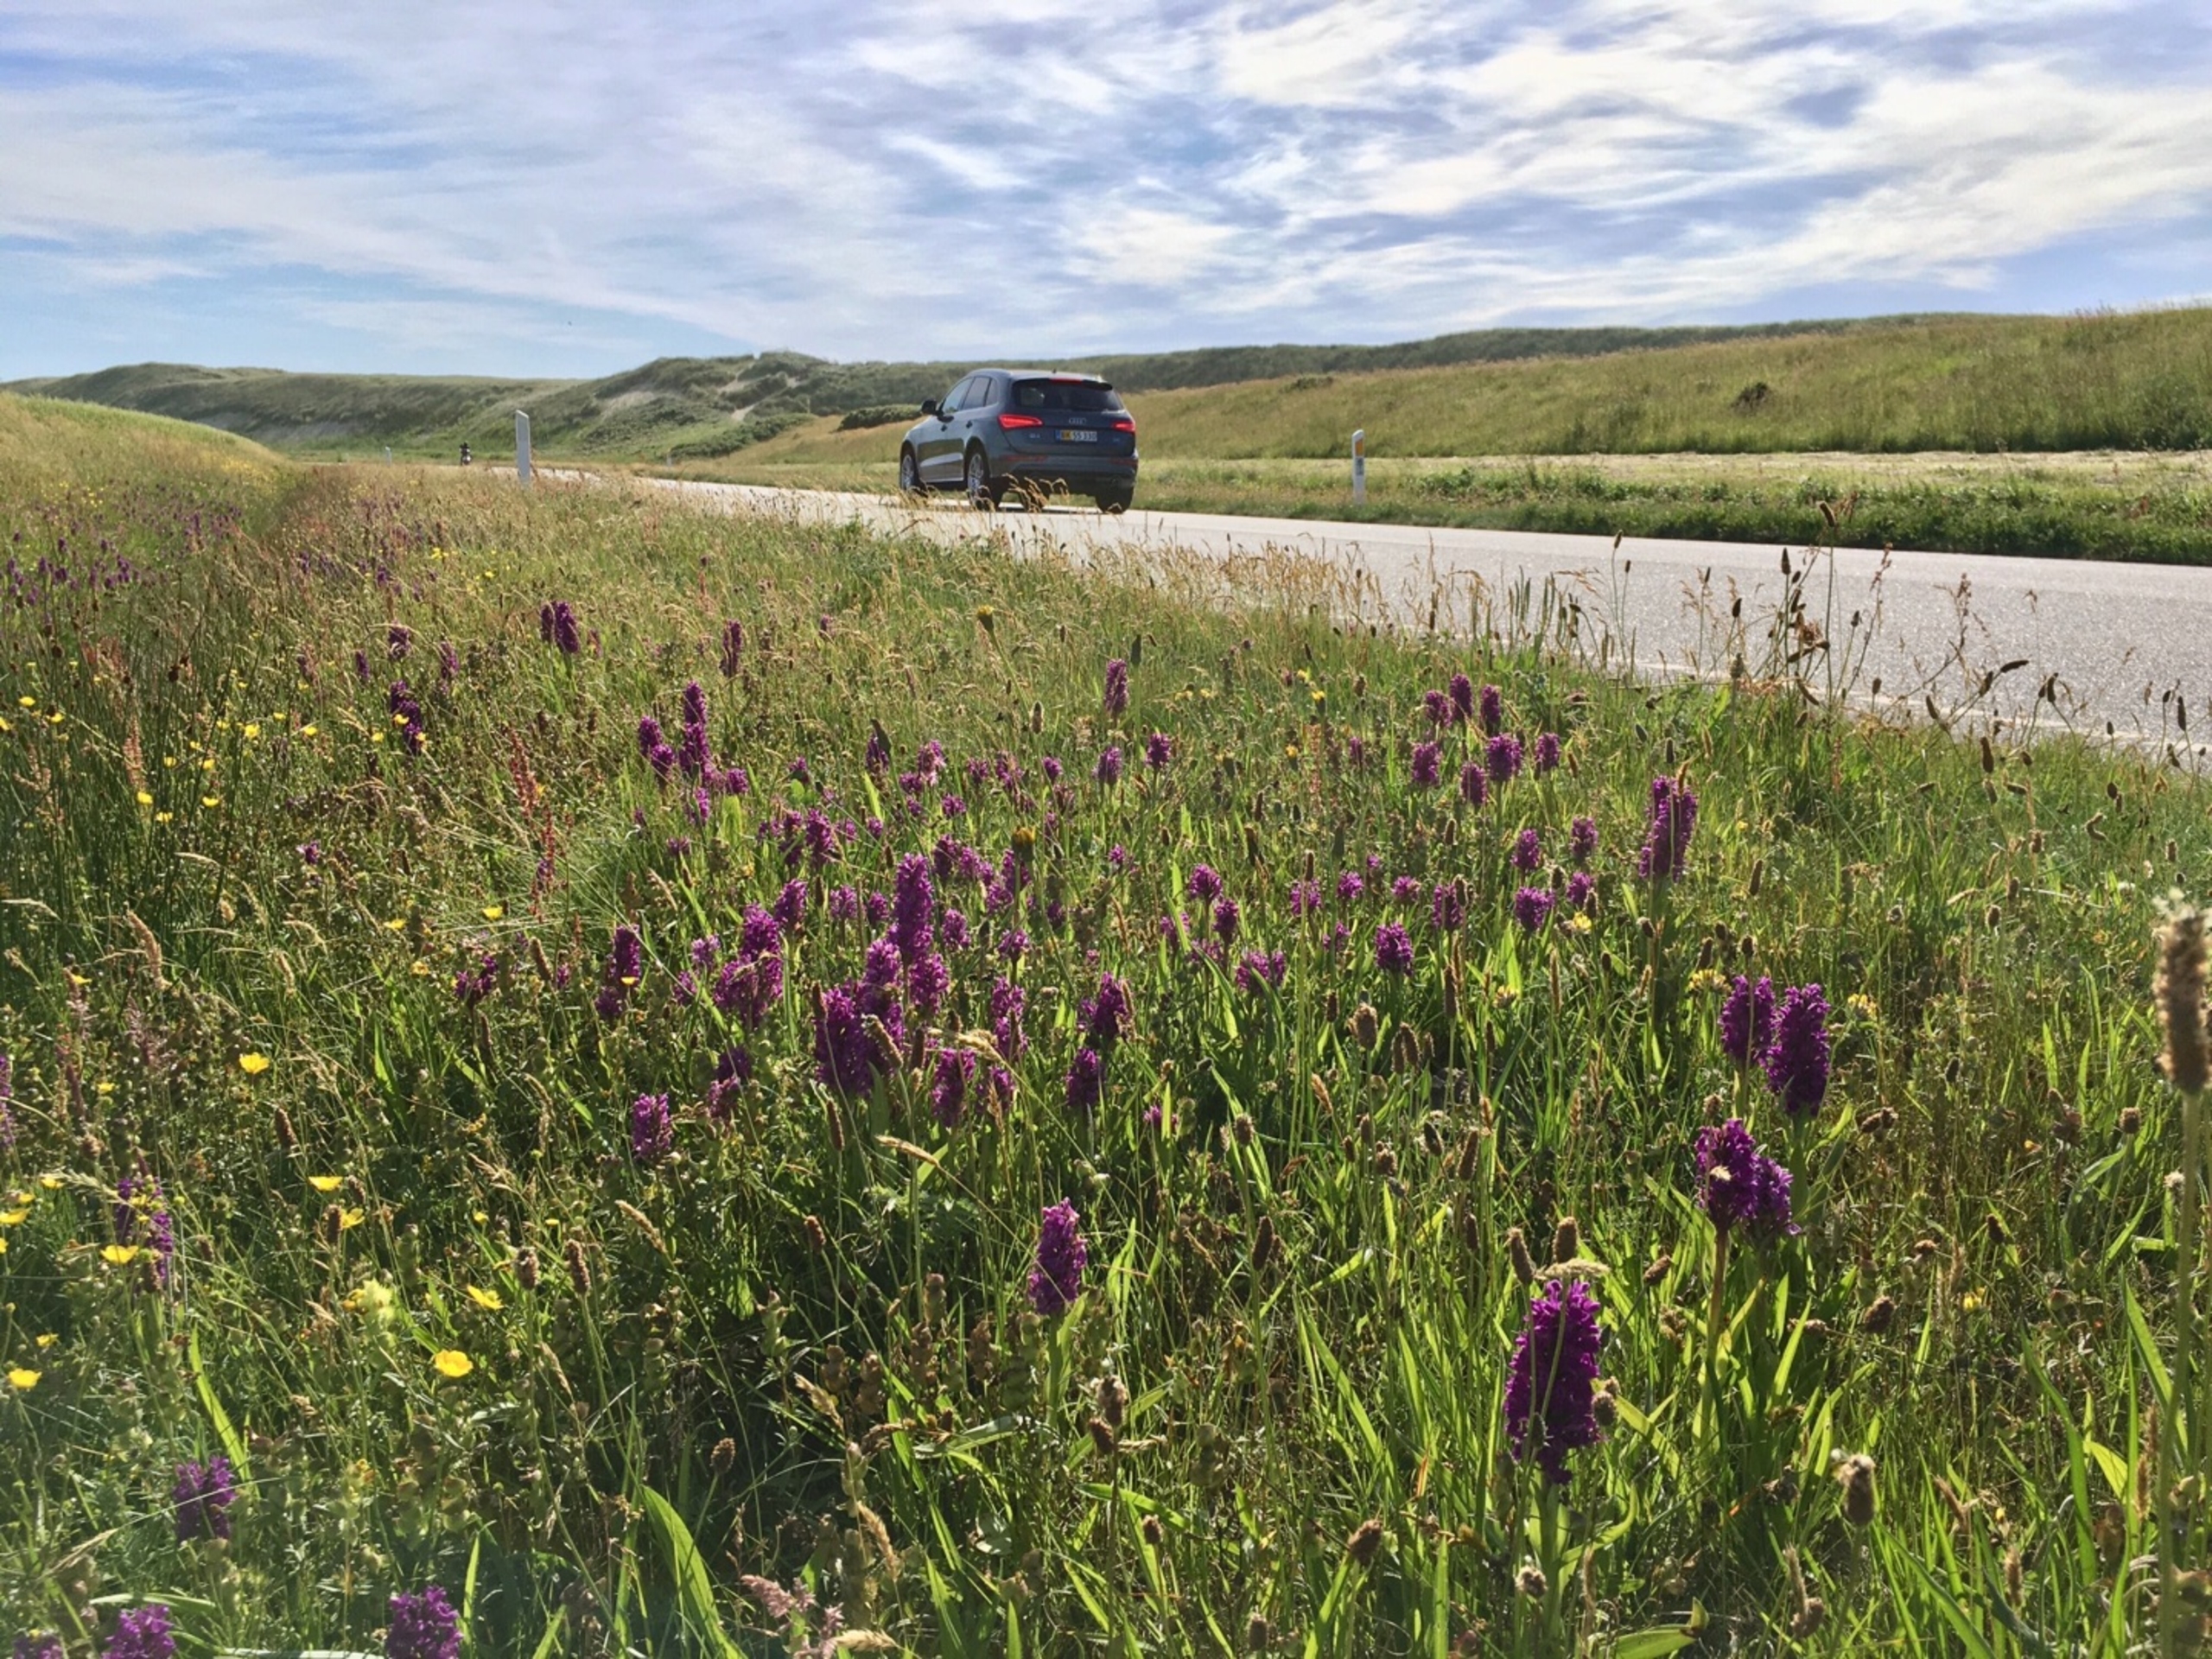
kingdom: Plantae
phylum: Tracheophyta
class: Liliopsida
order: Asparagales
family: Orchidaceae
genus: Dactylorhiza
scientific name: Dactylorhiza majalis
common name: Purpur-gøgeurt
